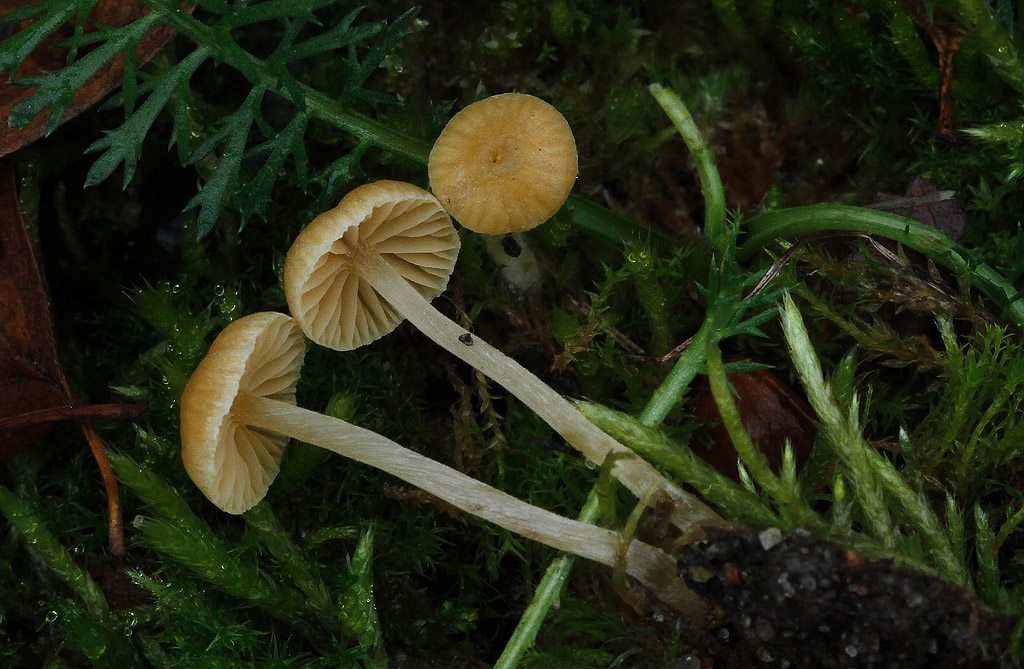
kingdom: Fungi
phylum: Basidiomycota
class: Agaricomycetes
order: Agaricales
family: Hymenogastraceae
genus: Galerina
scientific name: Galerina graminea
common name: plæne-hjelmhat
